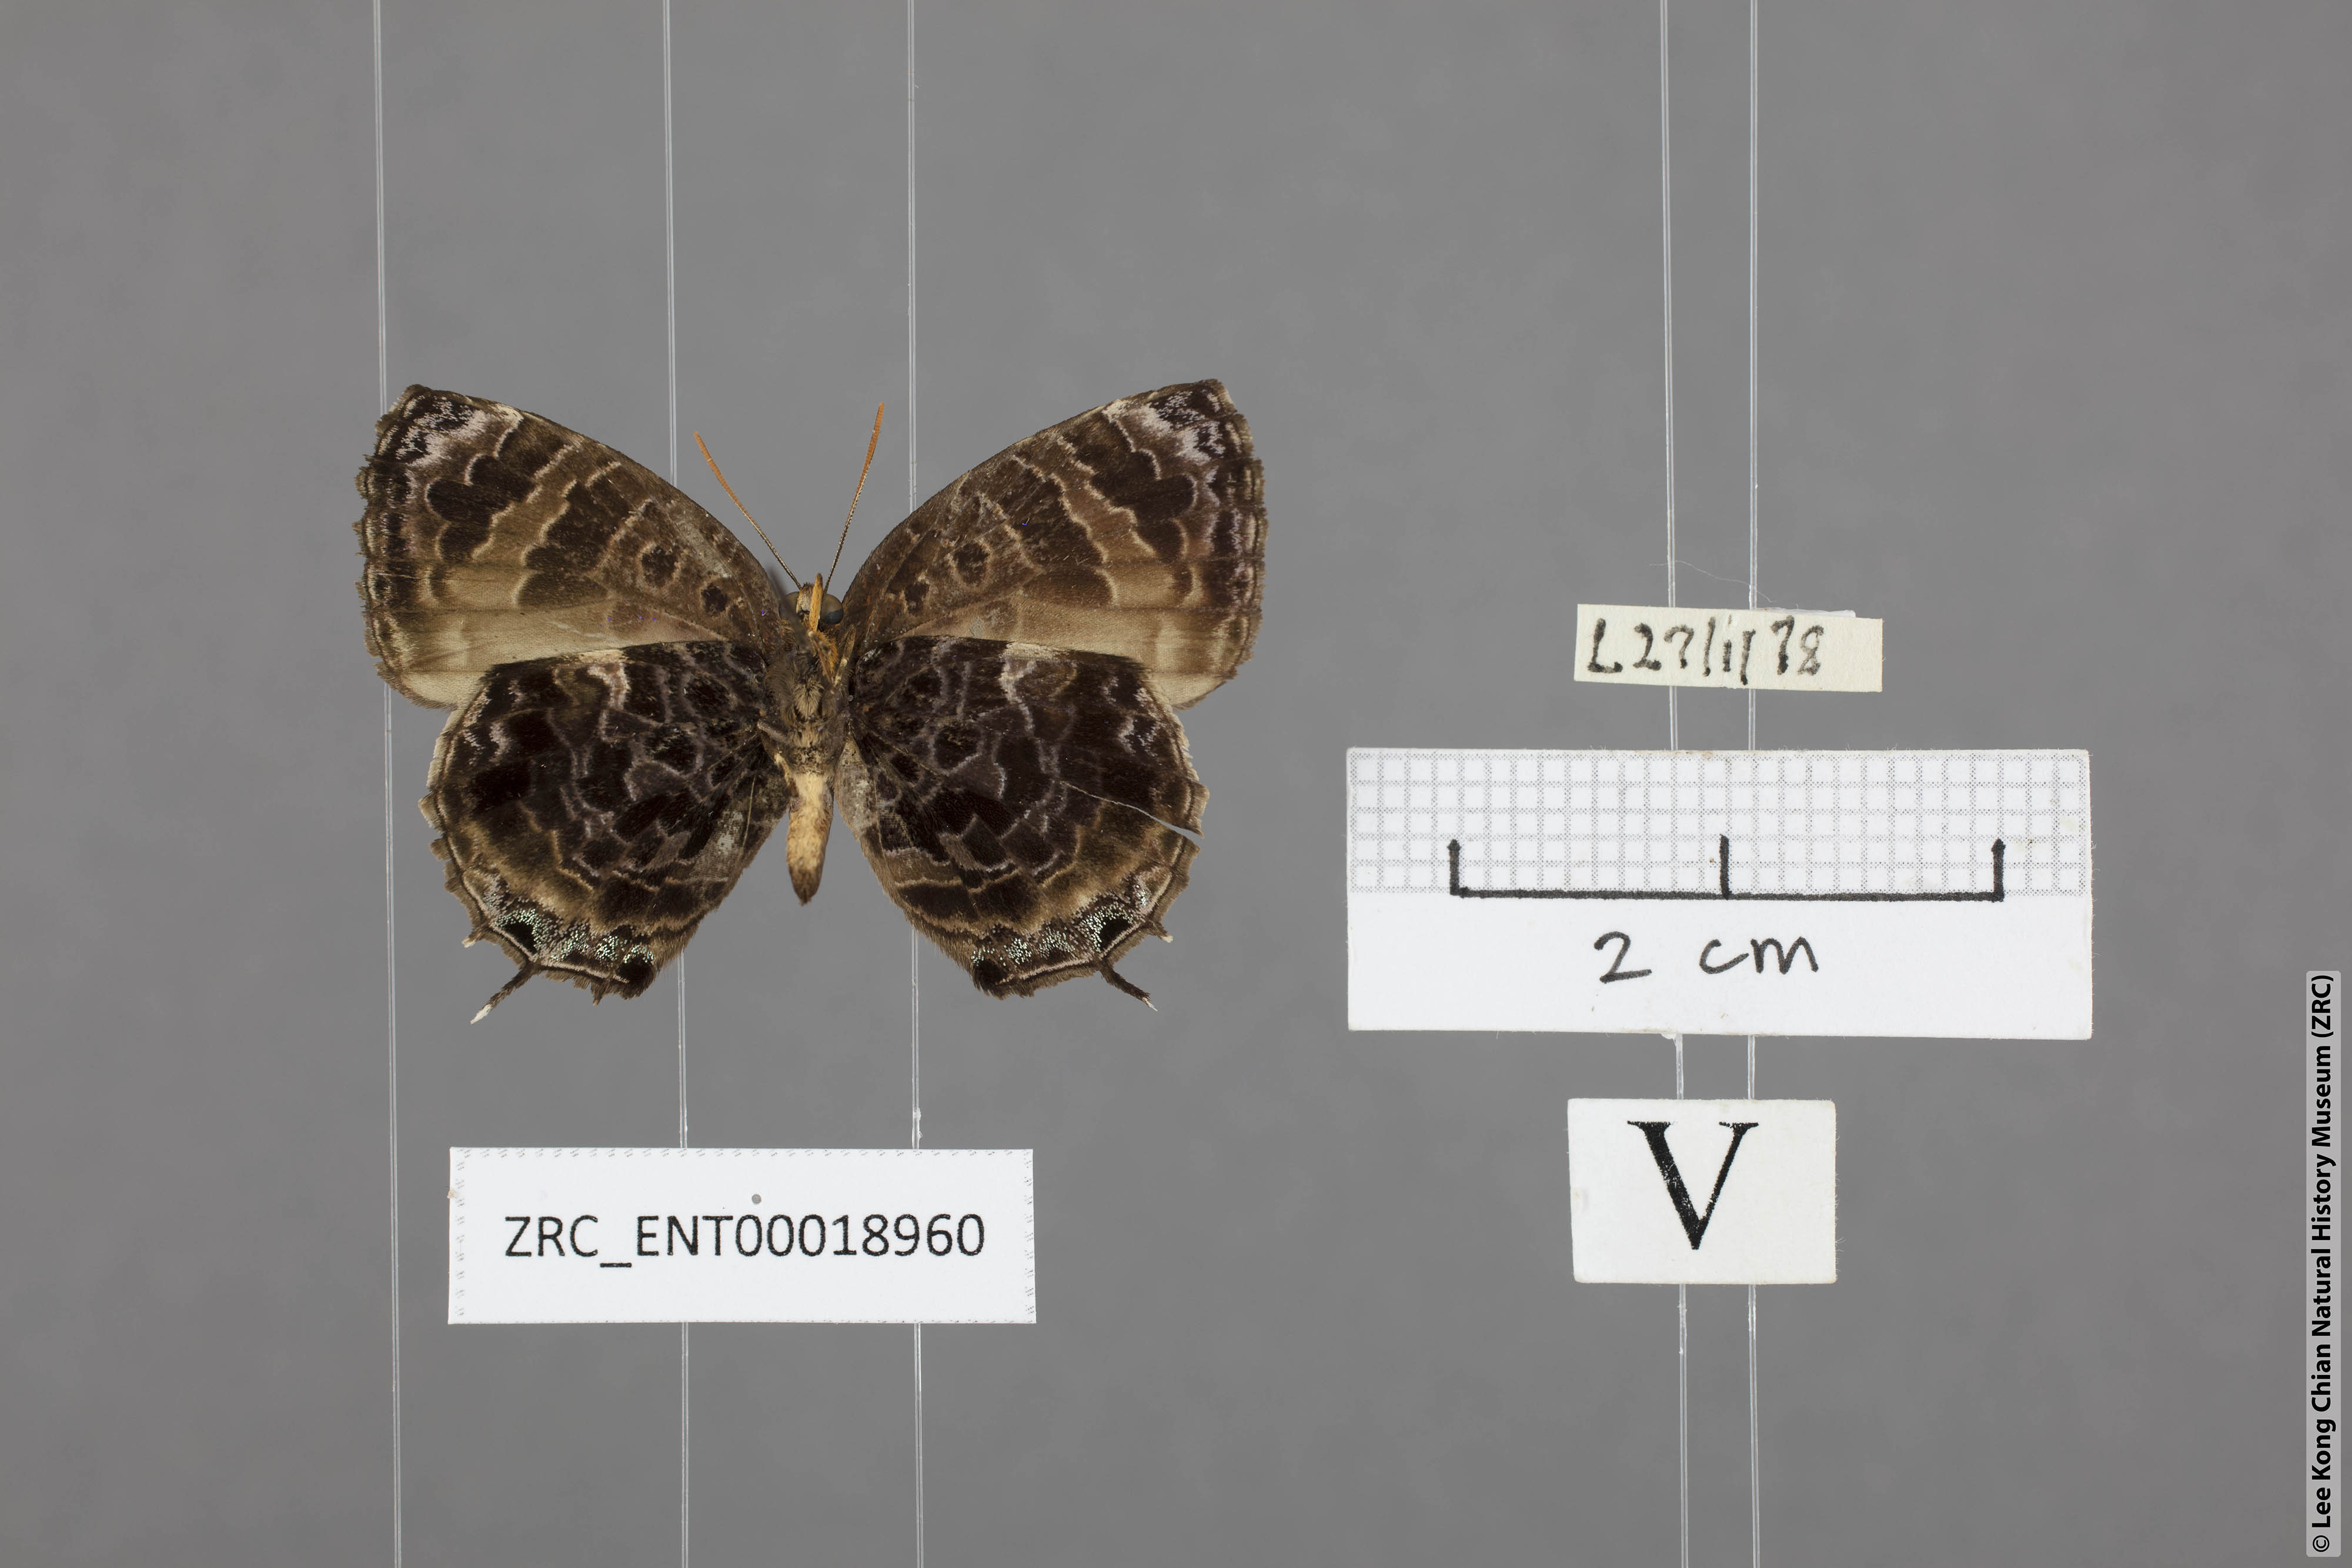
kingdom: Animalia
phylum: Arthropoda
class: Insecta
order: Lepidoptera
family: Lycaenidae
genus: Arhopala
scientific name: Arhopala abseus
